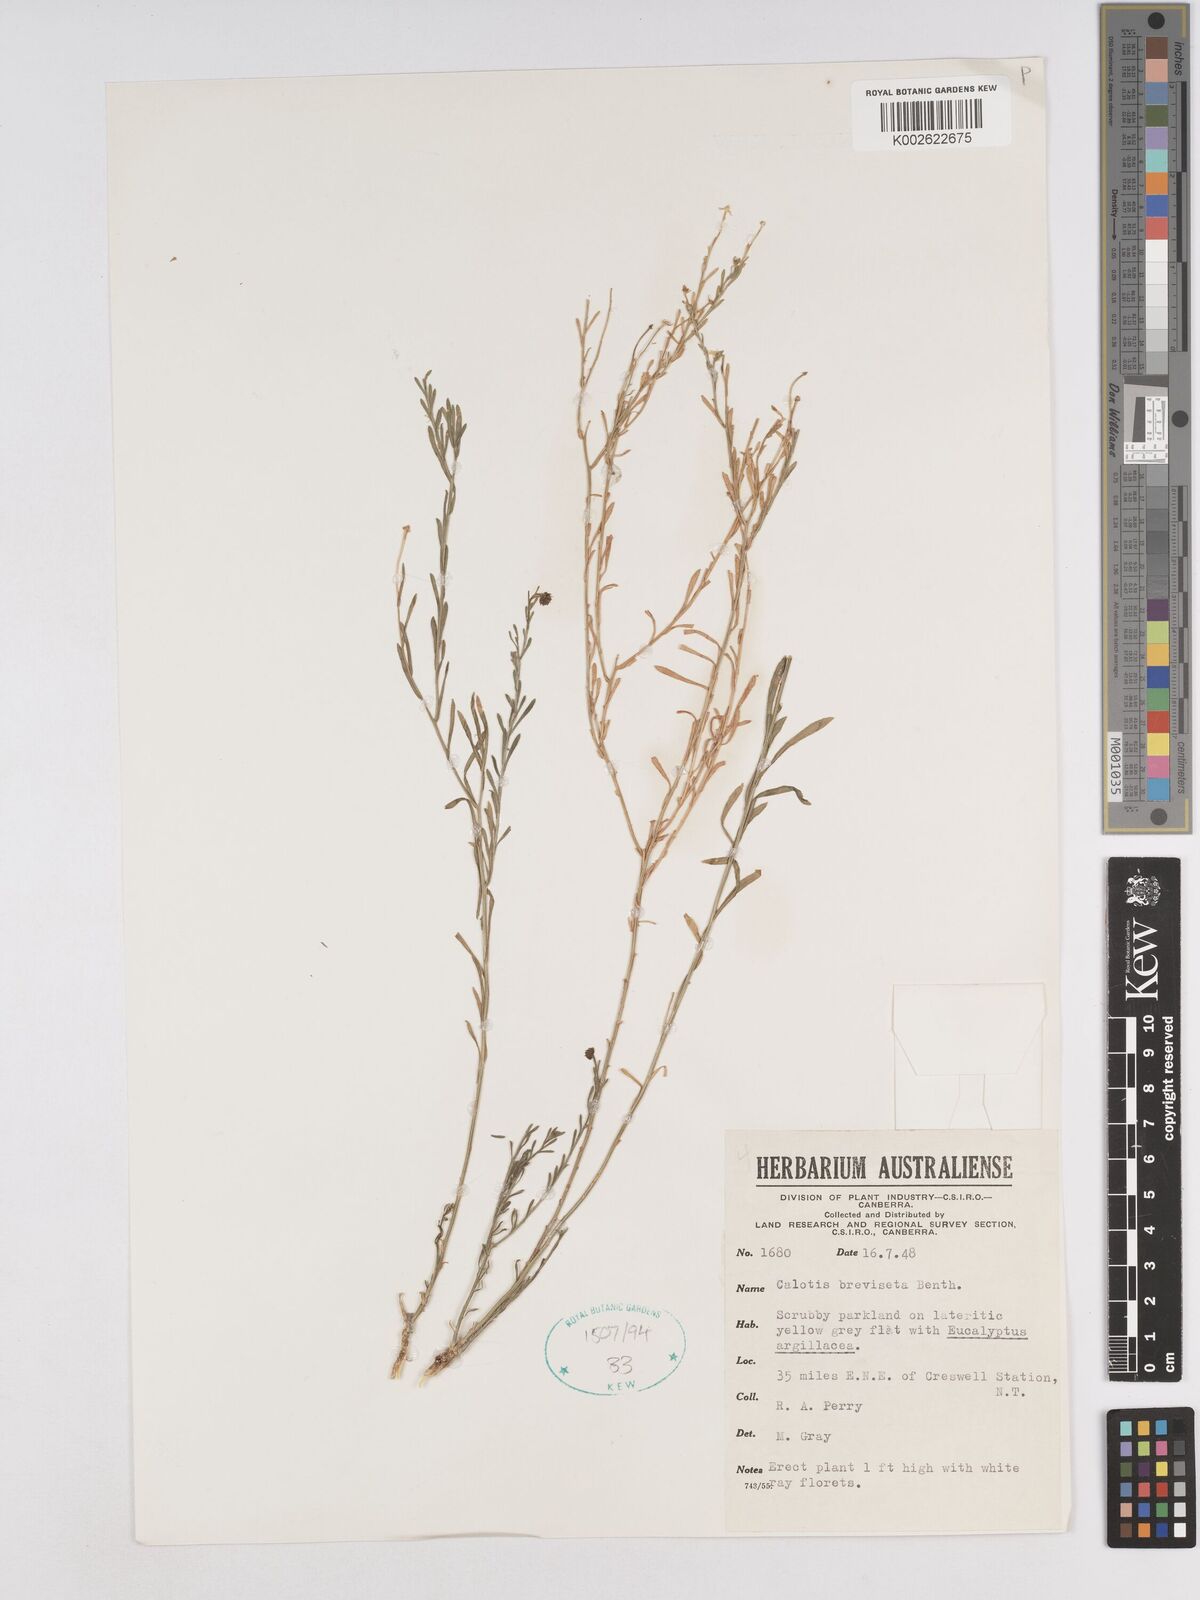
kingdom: Plantae
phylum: Tracheophyta
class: Magnoliopsida
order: Asterales
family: Asteraceae
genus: Calotis
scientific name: Calotis breviseta
